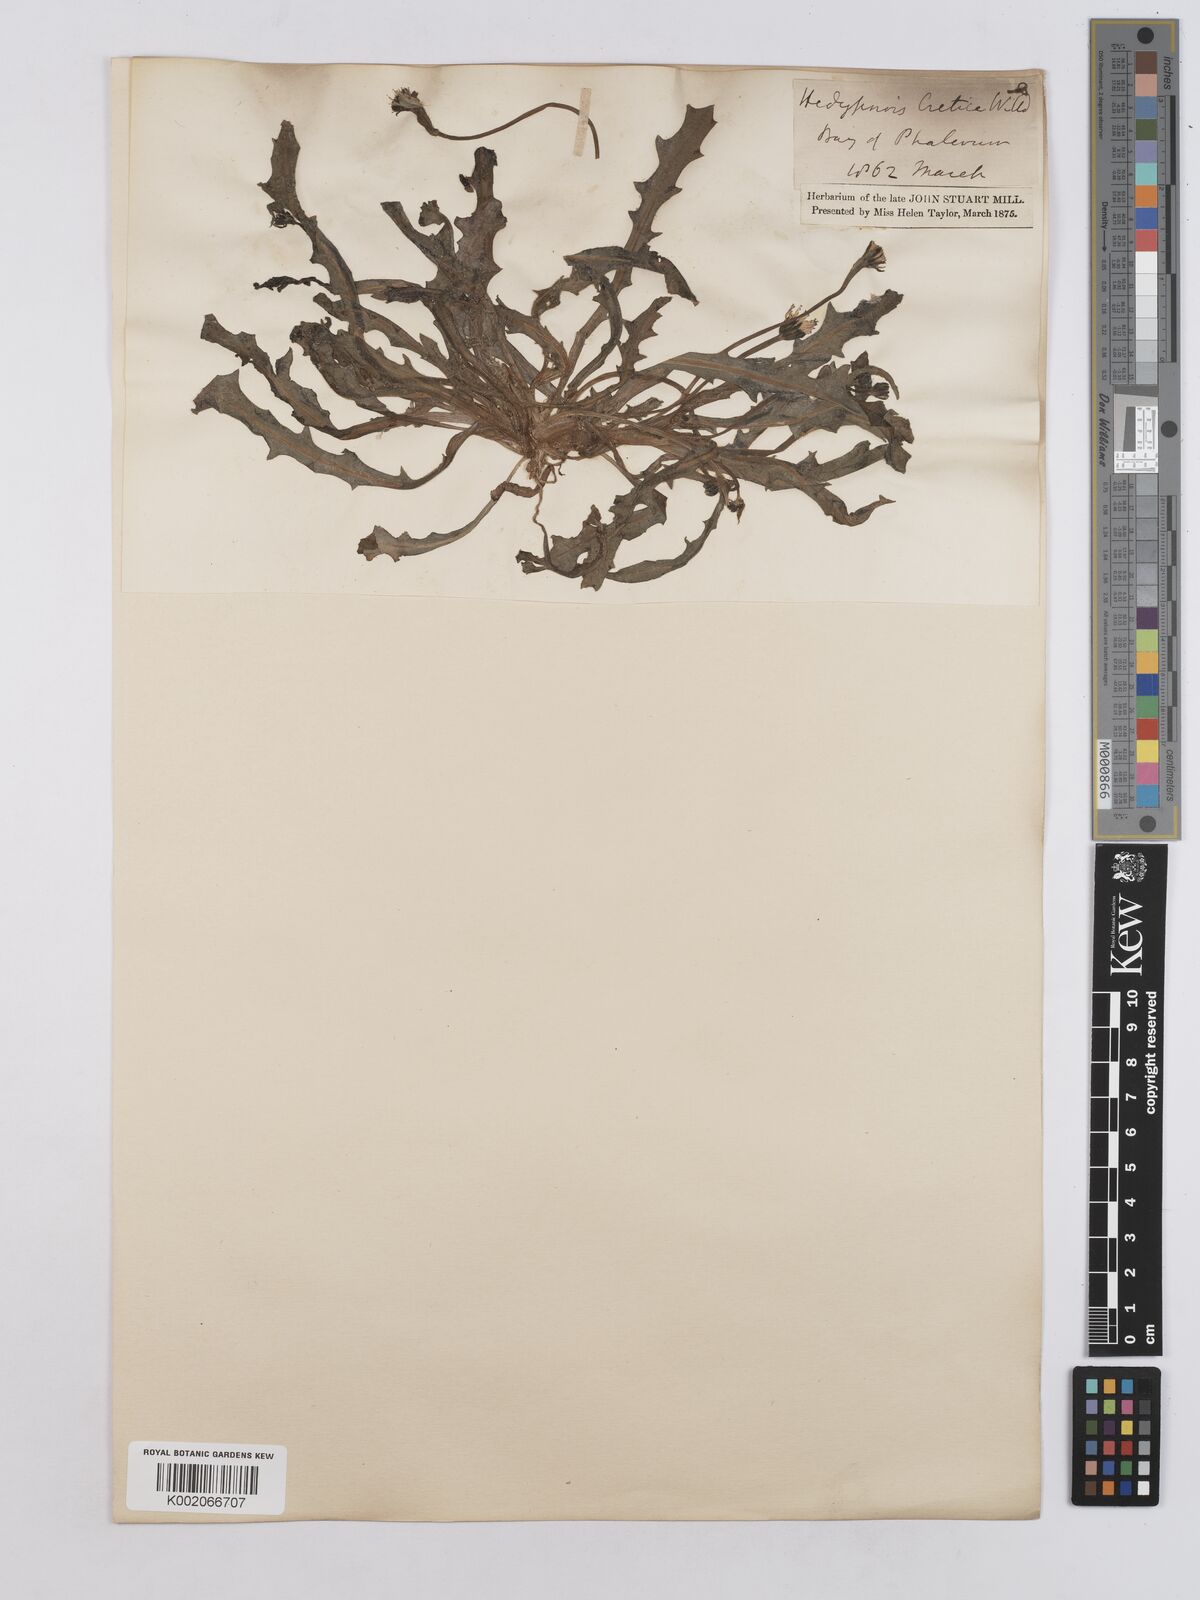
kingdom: Plantae
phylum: Tracheophyta
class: Magnoliopsida
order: Asterales
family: Asteraceae
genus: Hedypnois
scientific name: Hedypnois rhagadioloides
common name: Cretan weed
